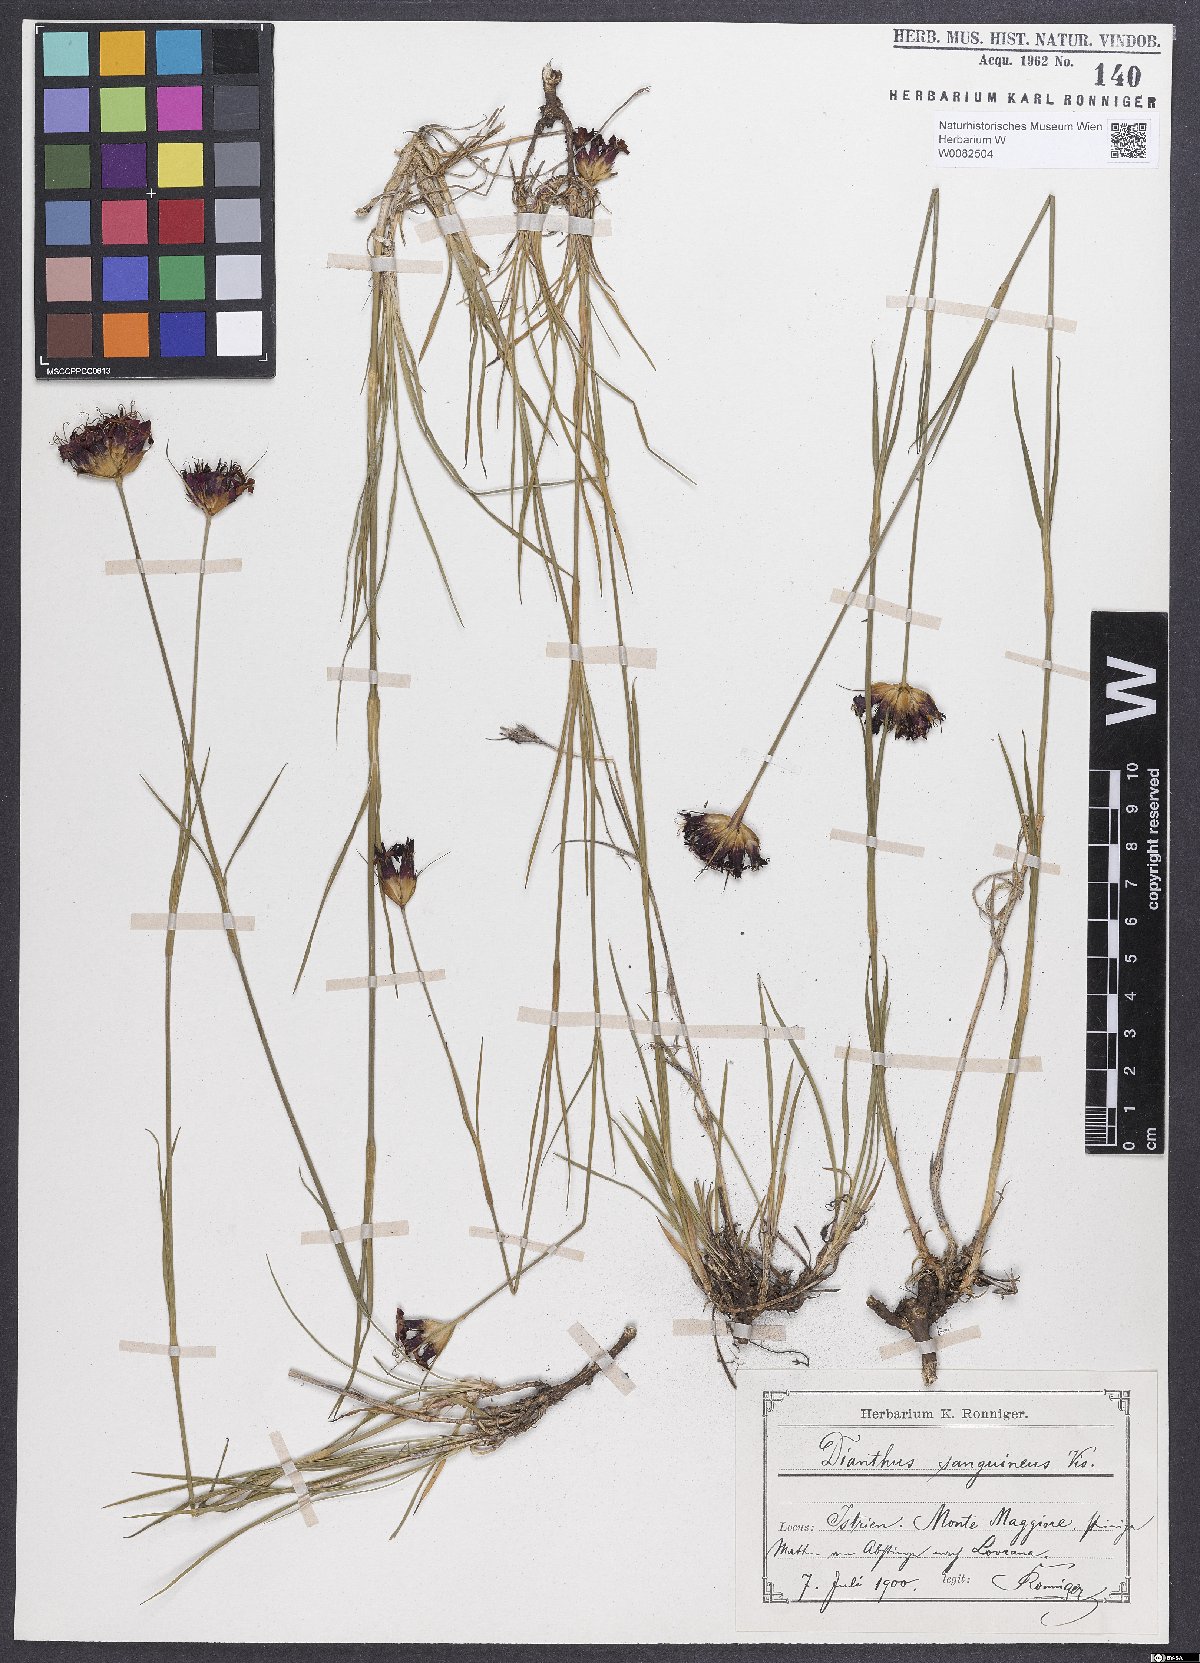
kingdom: Plantae
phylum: Tracheophyta
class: Magnoliopsida
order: Caryophyllales
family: Caryophyllaceae
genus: Dianthus
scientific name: Dianthus carthusianorum
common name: Carthusian pink
